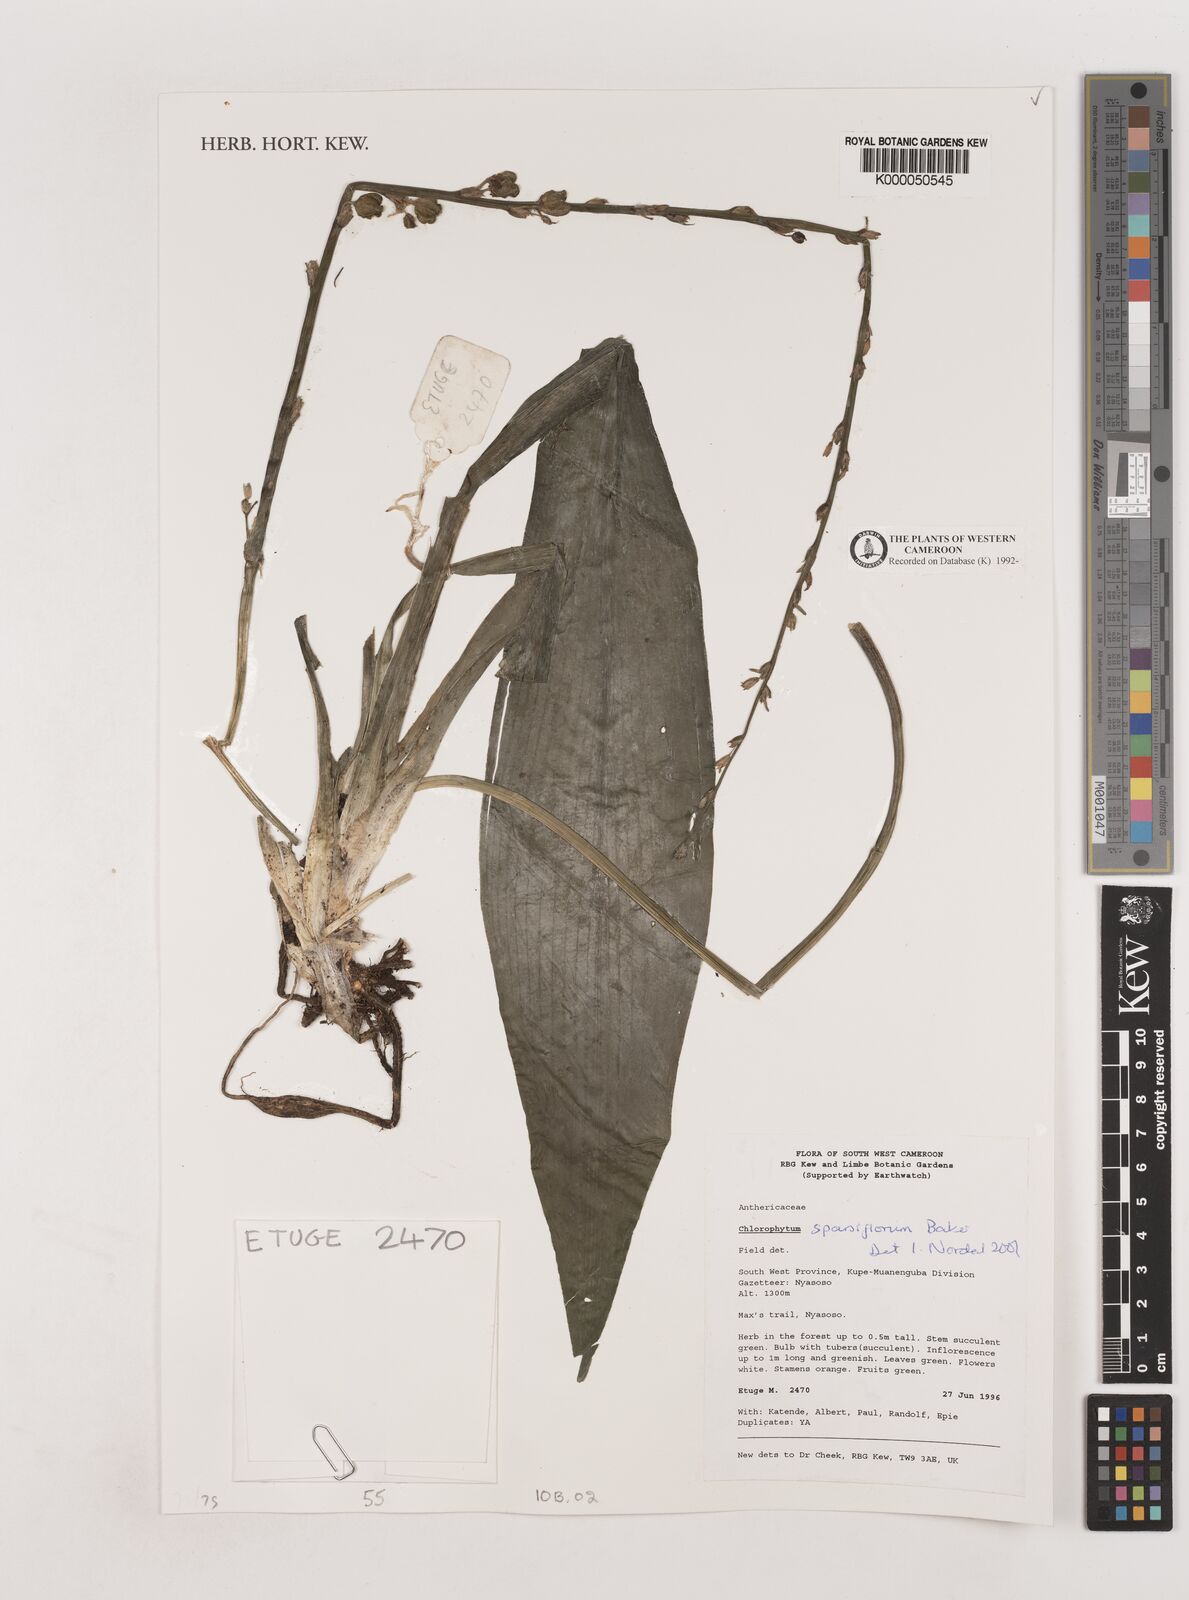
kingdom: Plantae
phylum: Tracheophyta
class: Liliopsida
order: Asparagales
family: Asparagaceae
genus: Chlorophytum
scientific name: Chlorophytum sparsiflorum
